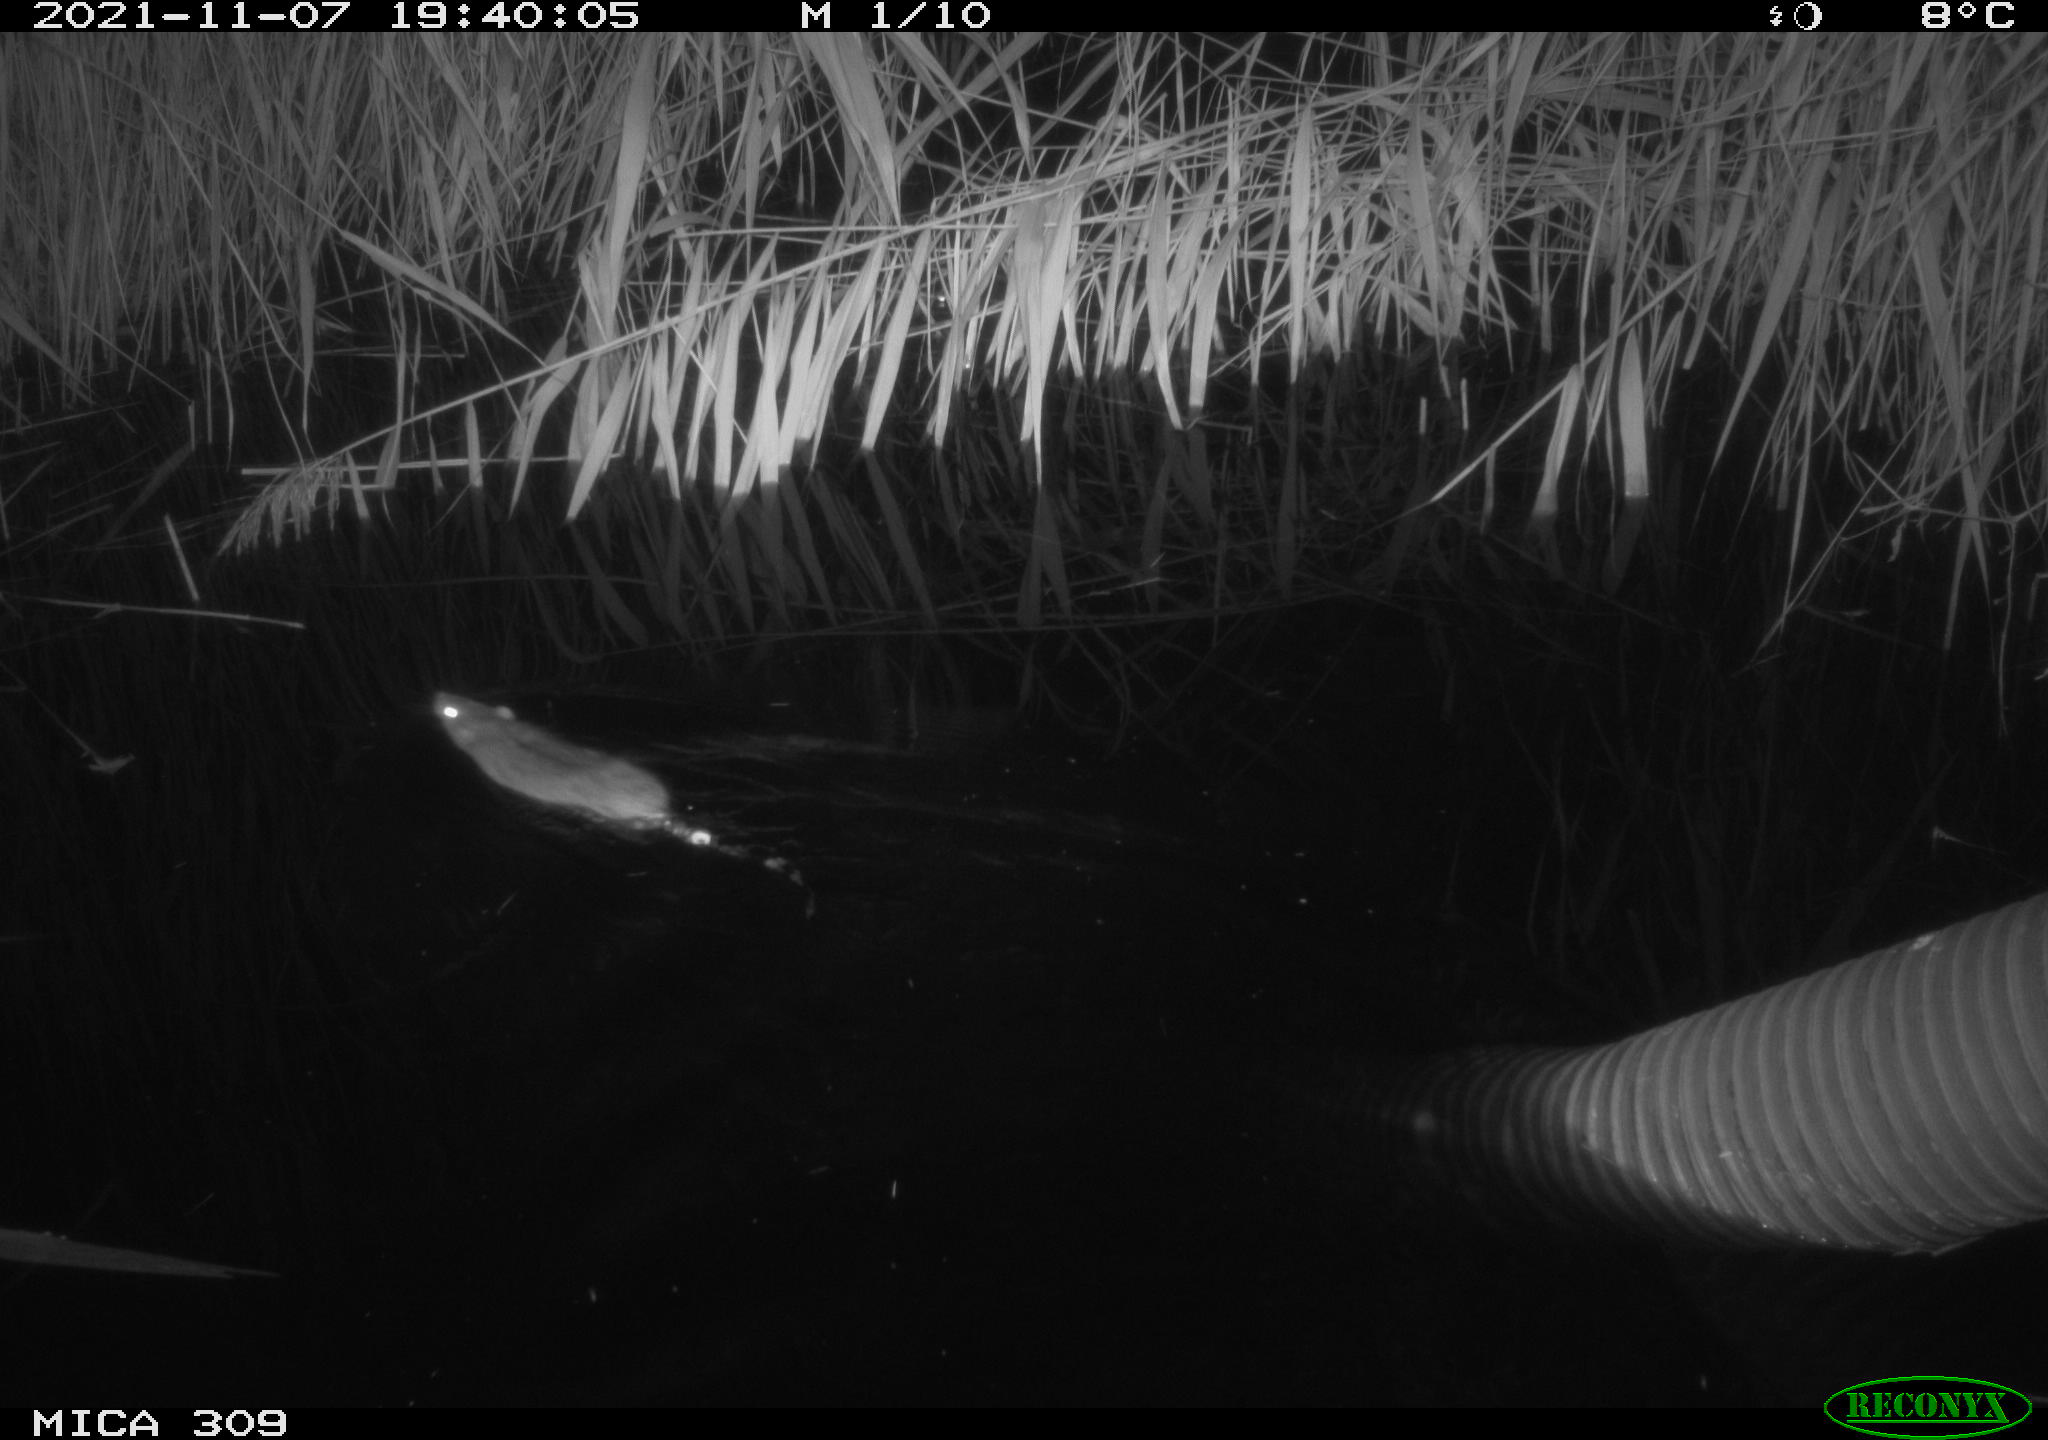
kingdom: Animalia
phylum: Chordata
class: Mammalia
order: Rodentia
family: Muridae
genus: Rattus
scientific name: Rattus norvegicus
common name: Brown rat
